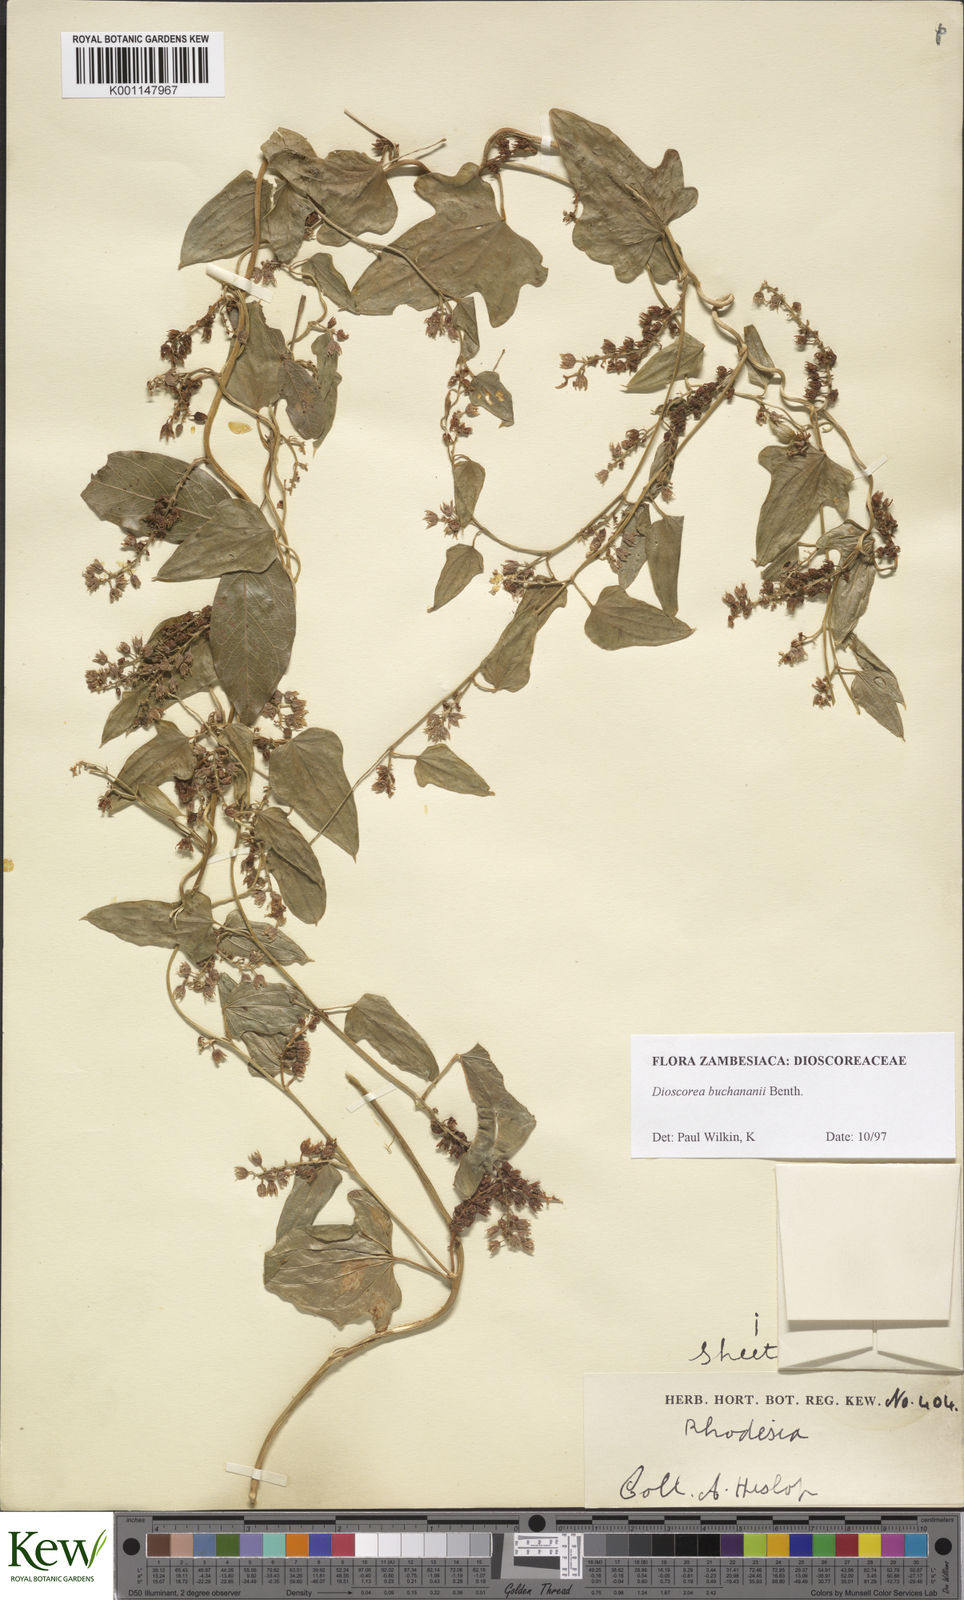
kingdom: Plantae
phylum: Tracheophyta
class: Liliopsida
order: Dioscoreales
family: Dioscoreaceae
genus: Dioscorea
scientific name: Dioscorea buchananii
